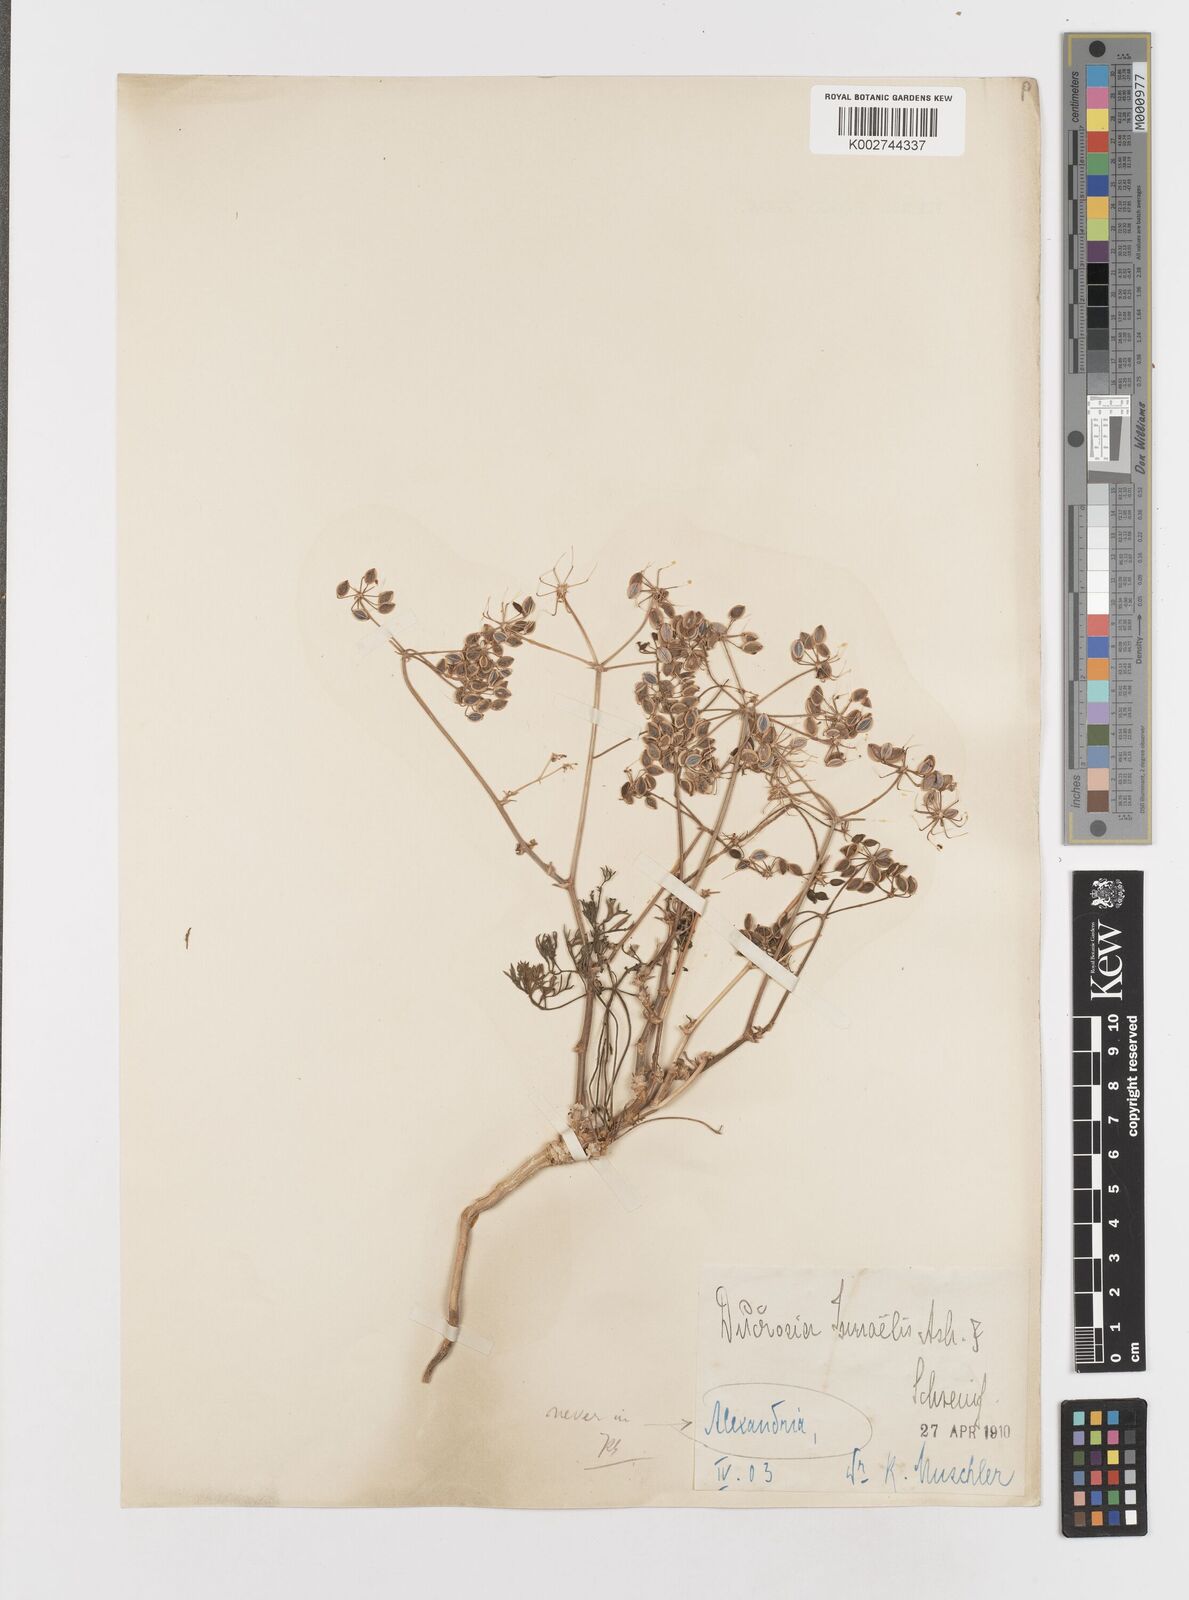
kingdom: Plantae
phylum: Tracheophyta
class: Magnoliopsida
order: Apiales
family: Apiaceae
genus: Ducrosia
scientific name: Ducrosia ismaelis
